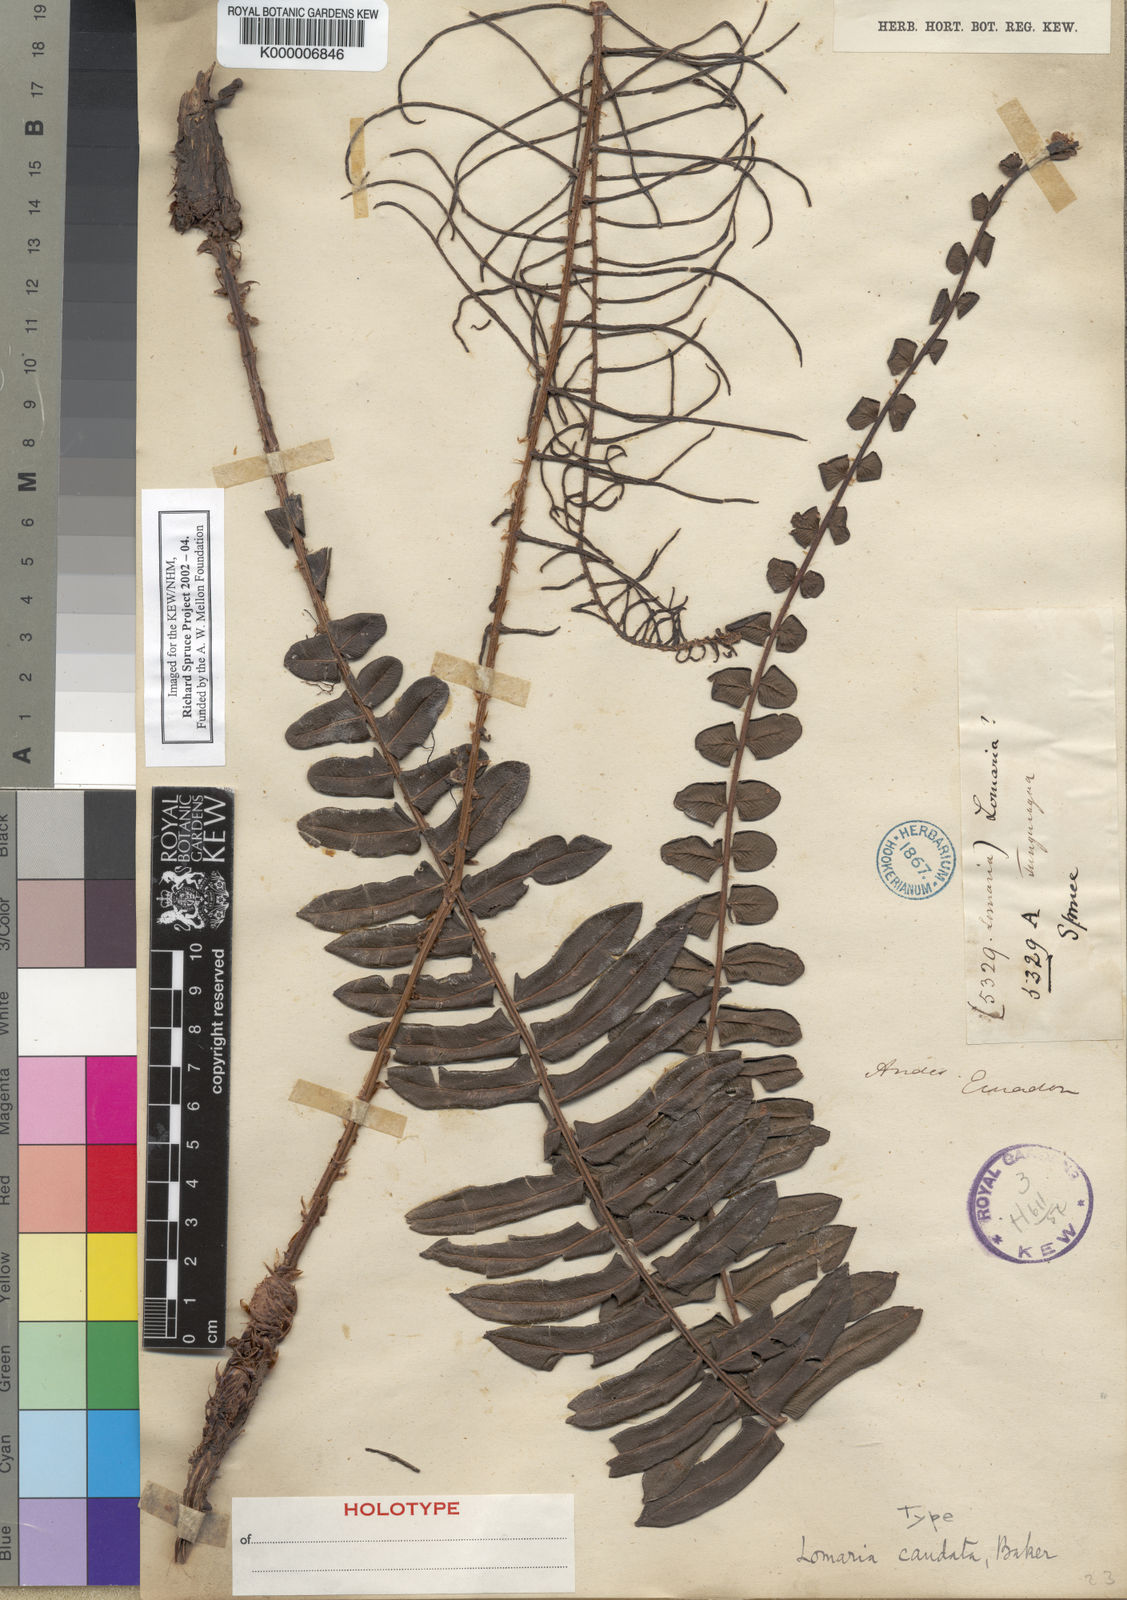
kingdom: Plantae
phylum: Tracheophyta
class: Polypodiopsida
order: Polypodiales
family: Blechnaceae
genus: Cranfillia
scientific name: Cranfillia caudata
